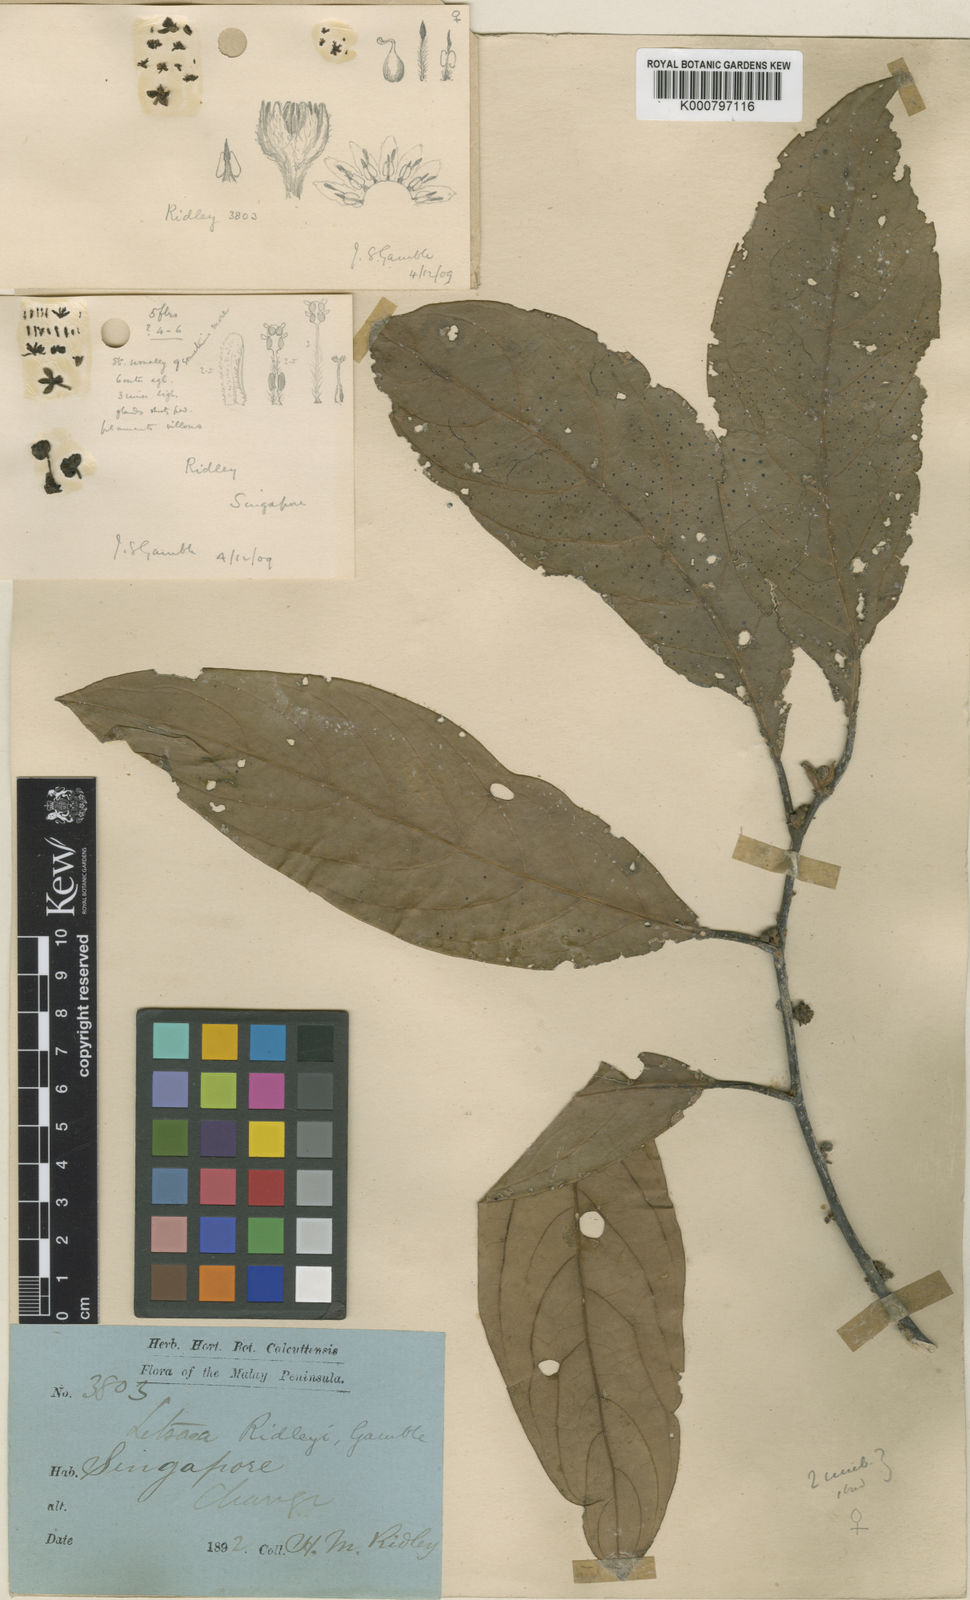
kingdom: Plantae
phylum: Tracheophyta
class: Magnoliopsida
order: Laurales
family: Lauraceae
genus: Litsea
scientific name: Litsea ridleyi
